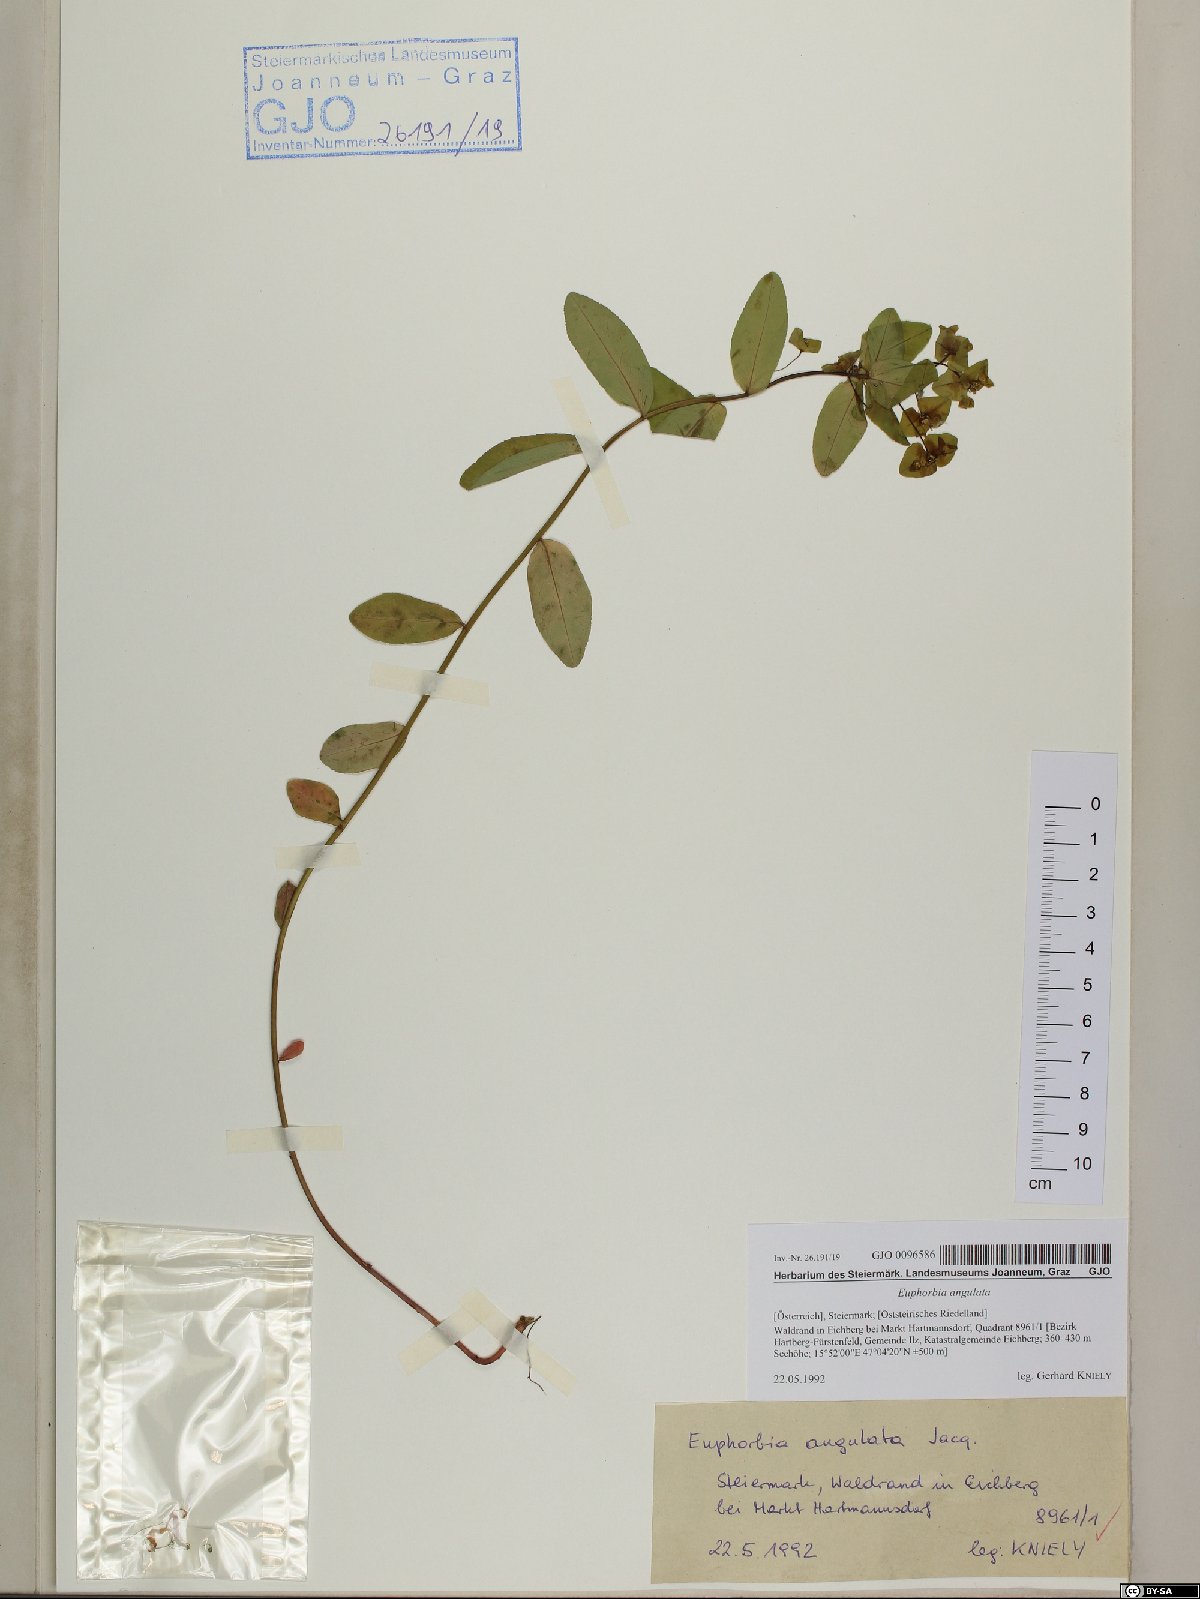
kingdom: Plantae
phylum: Tracheophyta
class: Magnoliopsida
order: Malpighiales
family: Euphorbiaceae
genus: Euphorbia
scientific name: Euphorbia angulata
